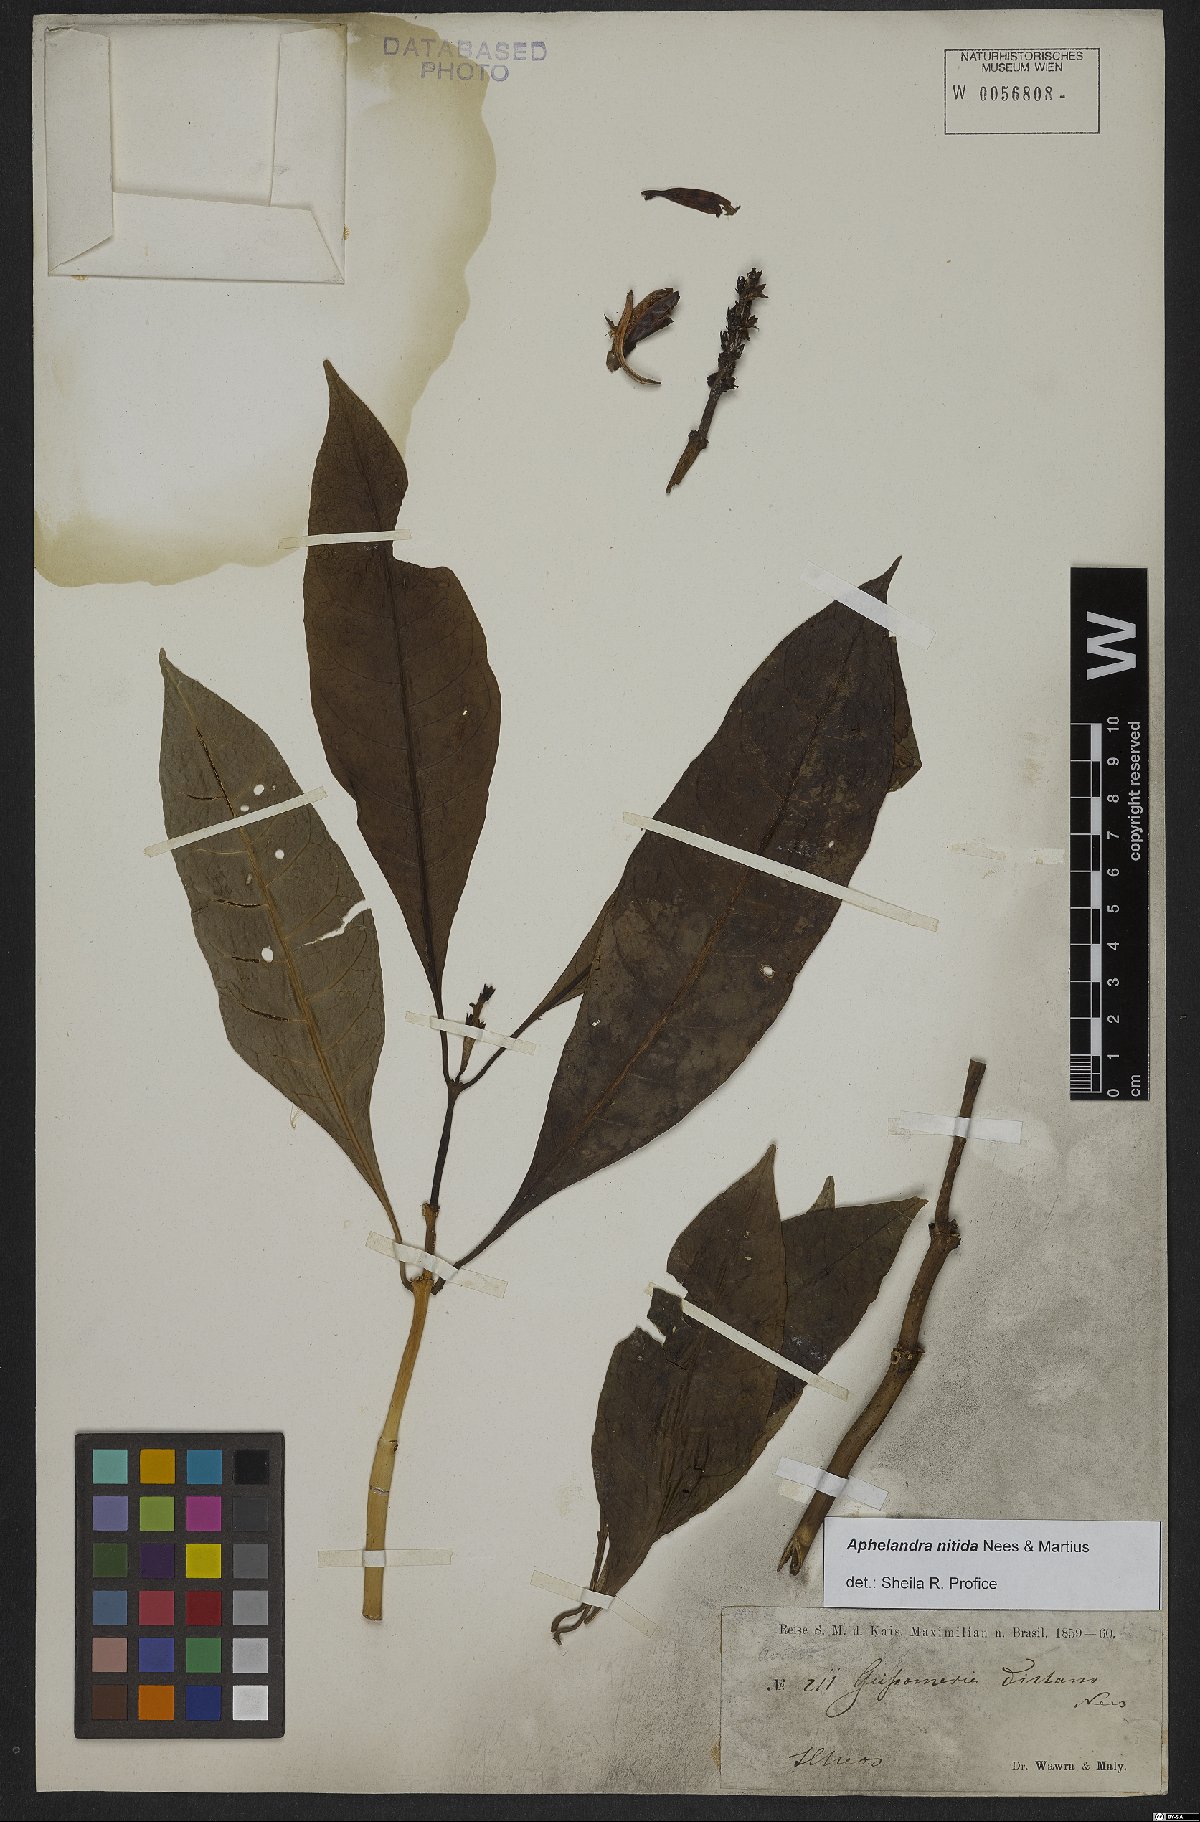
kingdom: Plantae
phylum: Tracheophyta
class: Magnoliopsida
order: Lamiales
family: Acanthaceae
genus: Aphelandra
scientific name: Aphelandra nitida
